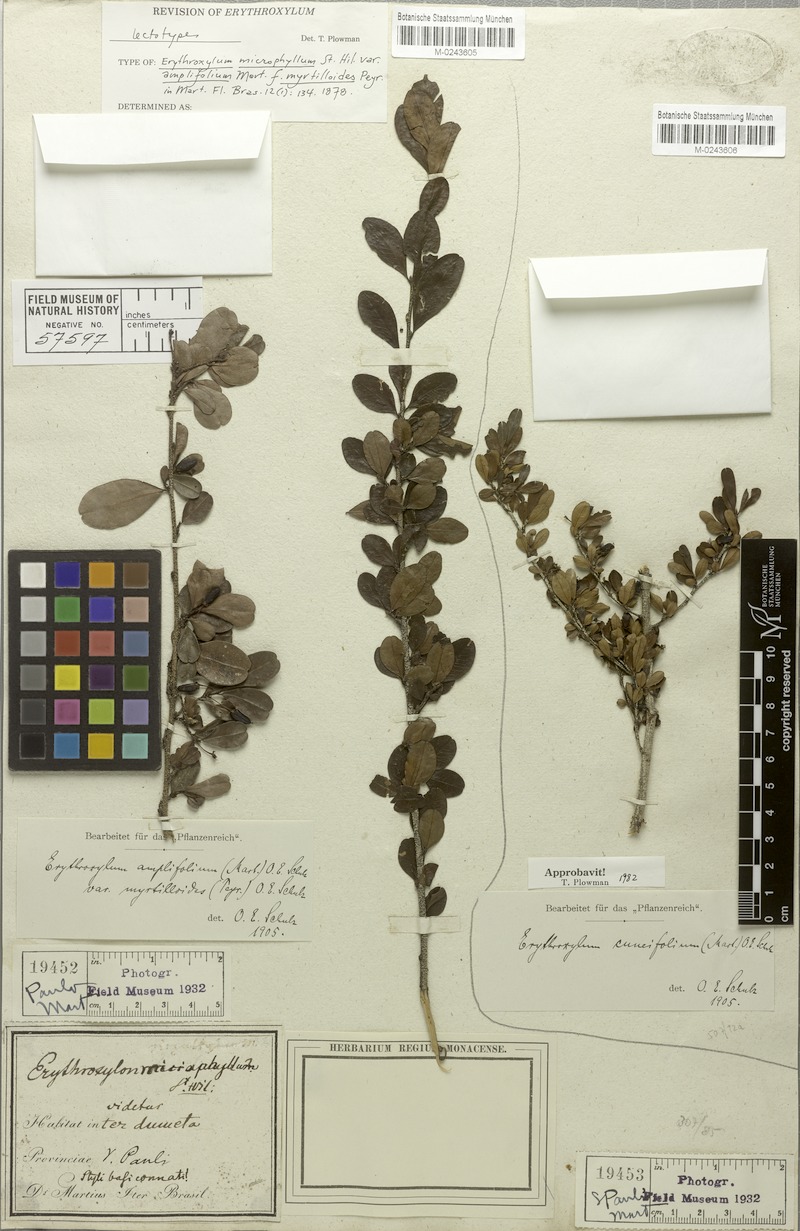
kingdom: Plantae
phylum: Tracheophyta
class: Magnoliopsida
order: Malpighiales
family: Erythroxylaceae
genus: Erythroxylum
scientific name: Erythroxylum cuneifolium
